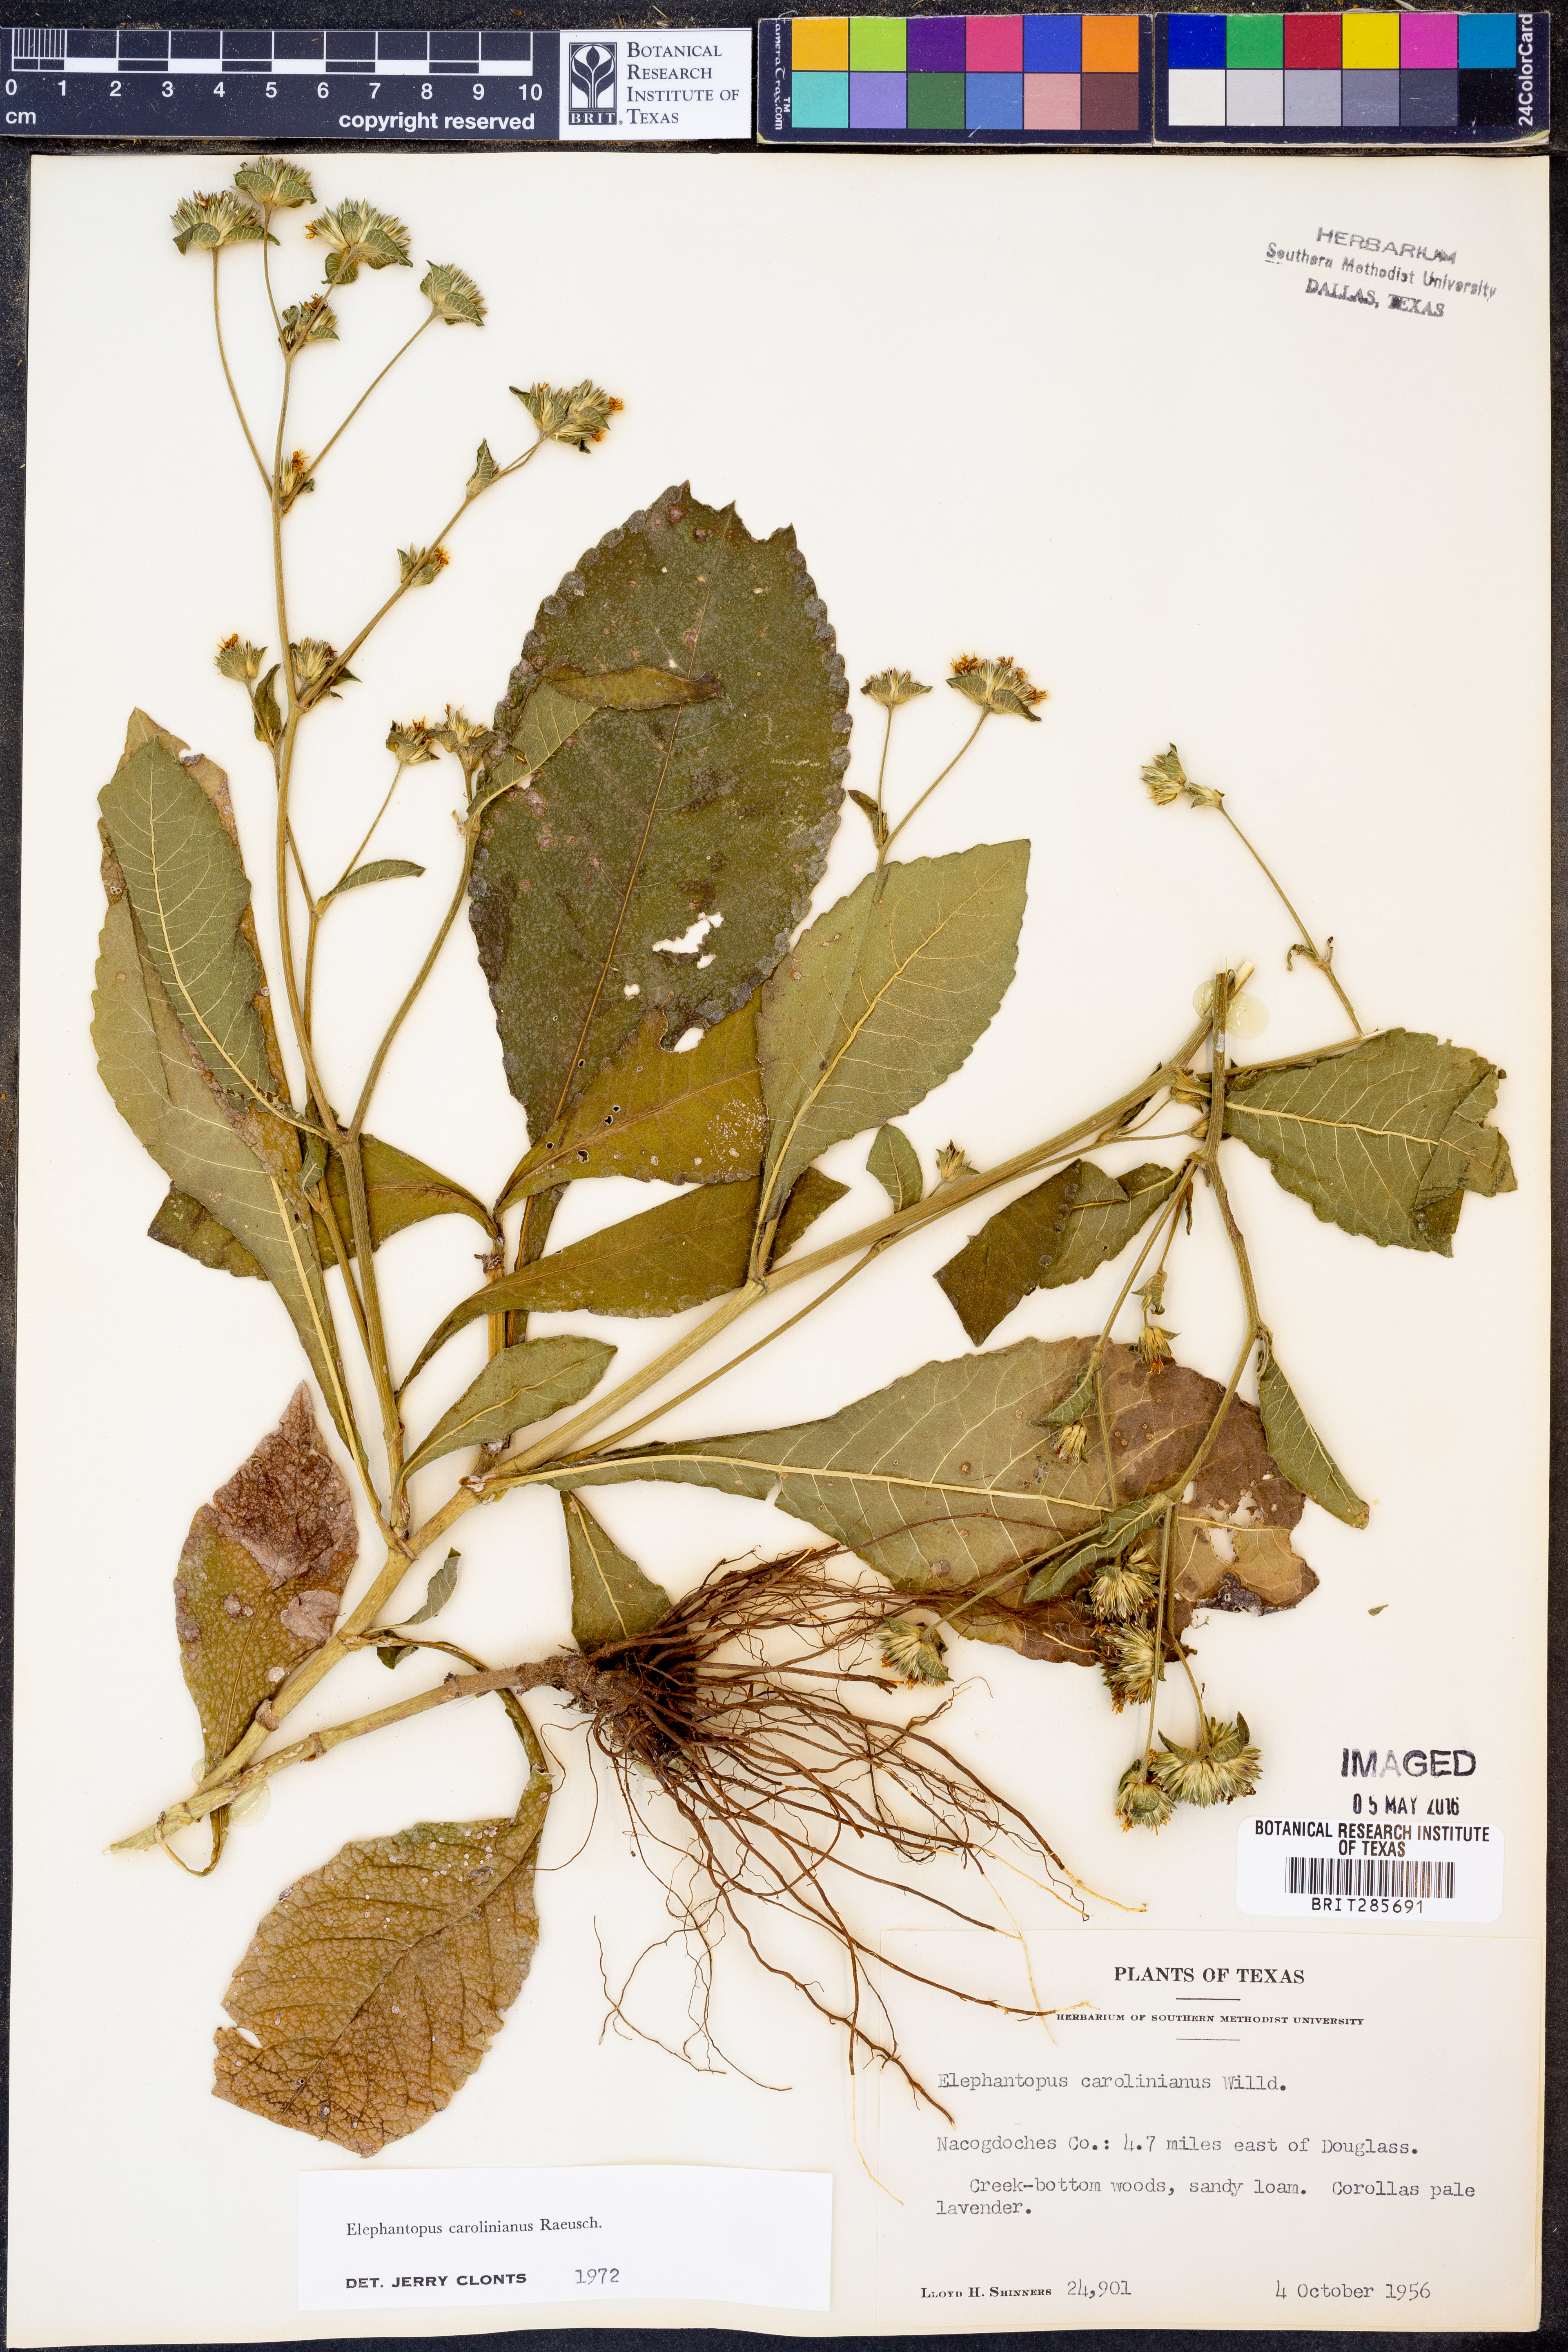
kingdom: Plantae
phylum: Tracheophyta
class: Magnoliopsida
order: Asterales
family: Asteraceae
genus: Elephantopus
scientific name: Elephantopus carolinianus
